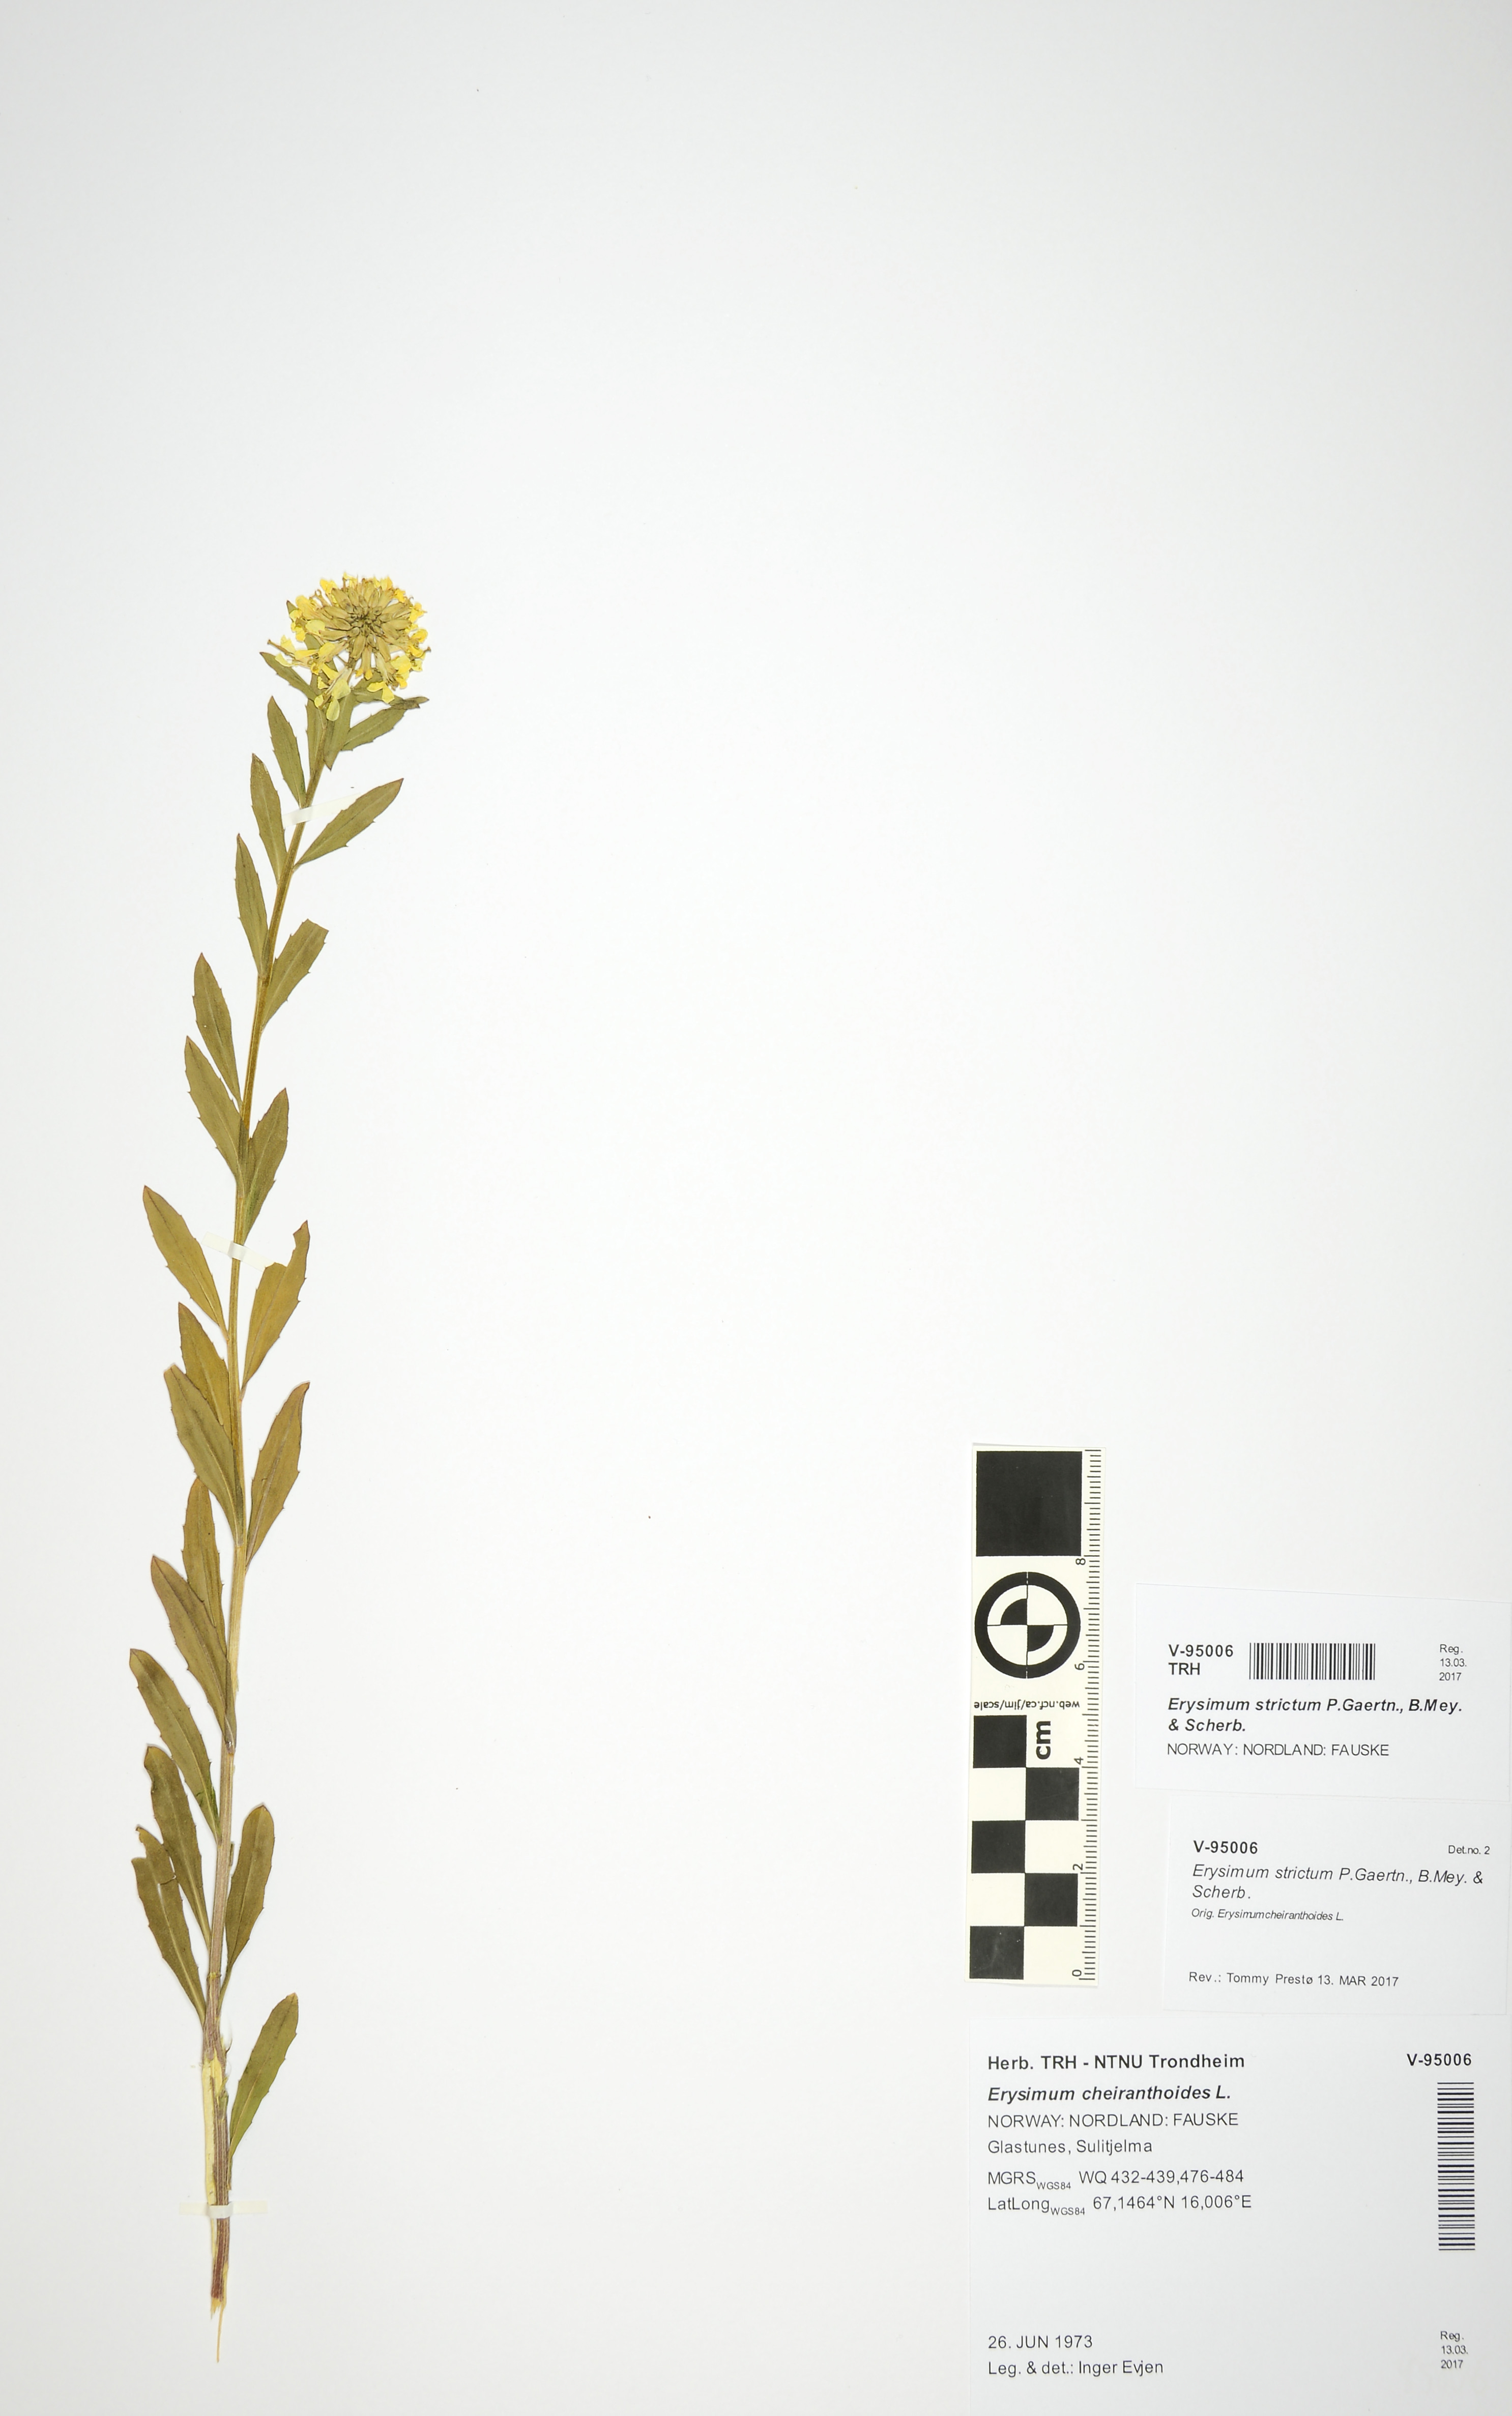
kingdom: Plantae
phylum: Tracheophyta
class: Magnoliopsida
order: Brassicales
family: Brassicaceae
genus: Erysimum
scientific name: Erysimum virgatum
